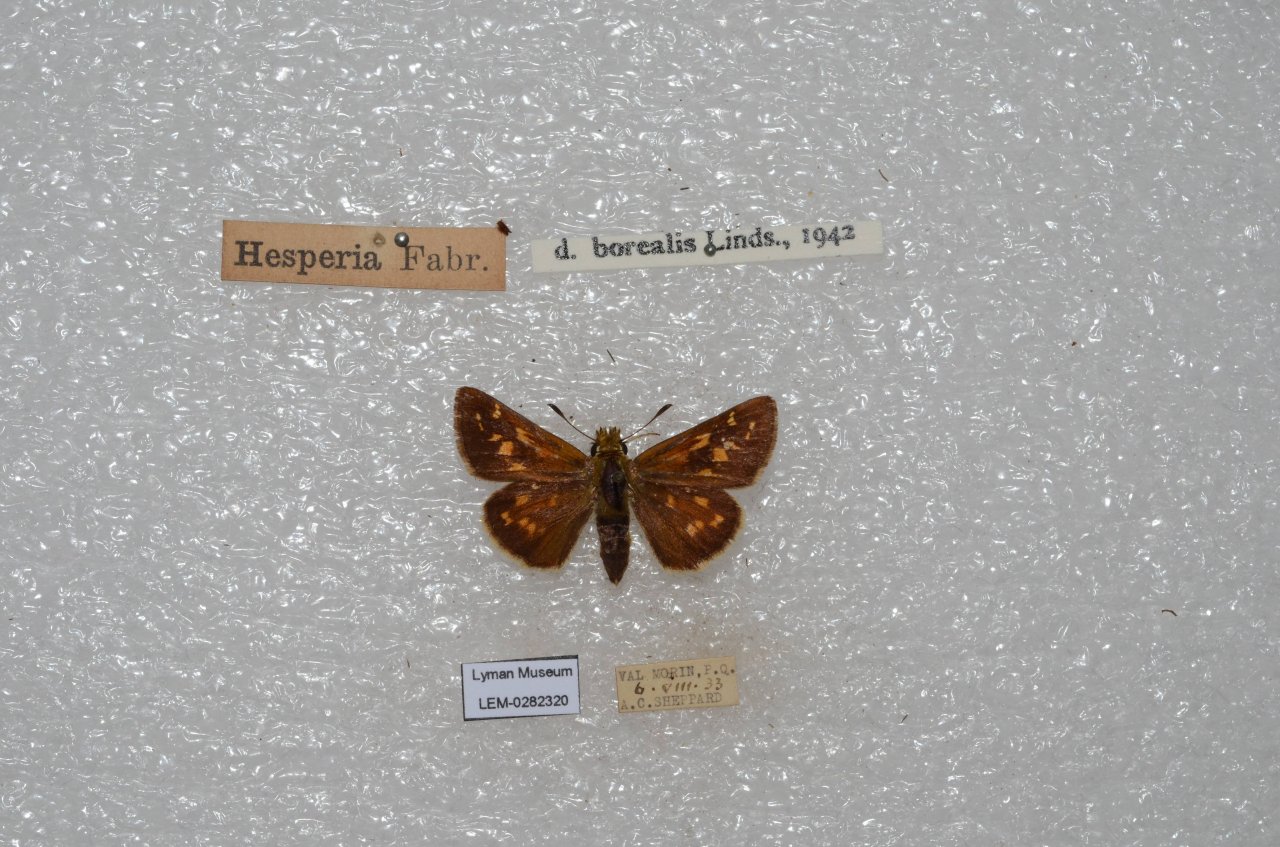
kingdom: Animalia
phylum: Arthropoda
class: Insecta
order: Lepidoptera
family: Hesperiidae
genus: Hesperia
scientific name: Hesperia comma
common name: Common Branded Skipper
